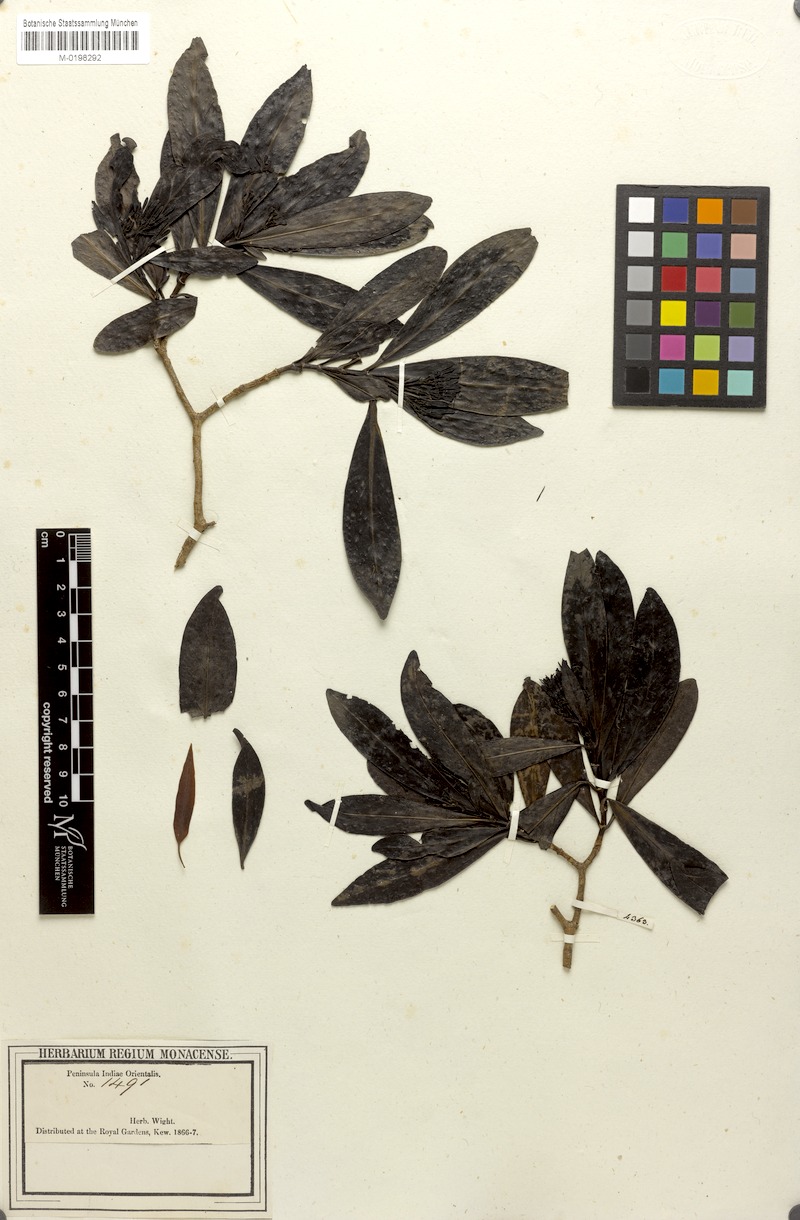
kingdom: Plantae
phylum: Tracheophyta
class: Magnoliopsida
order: Gentianales
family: Rubiaceae
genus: Tarenna
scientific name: Tarenna alpestris
